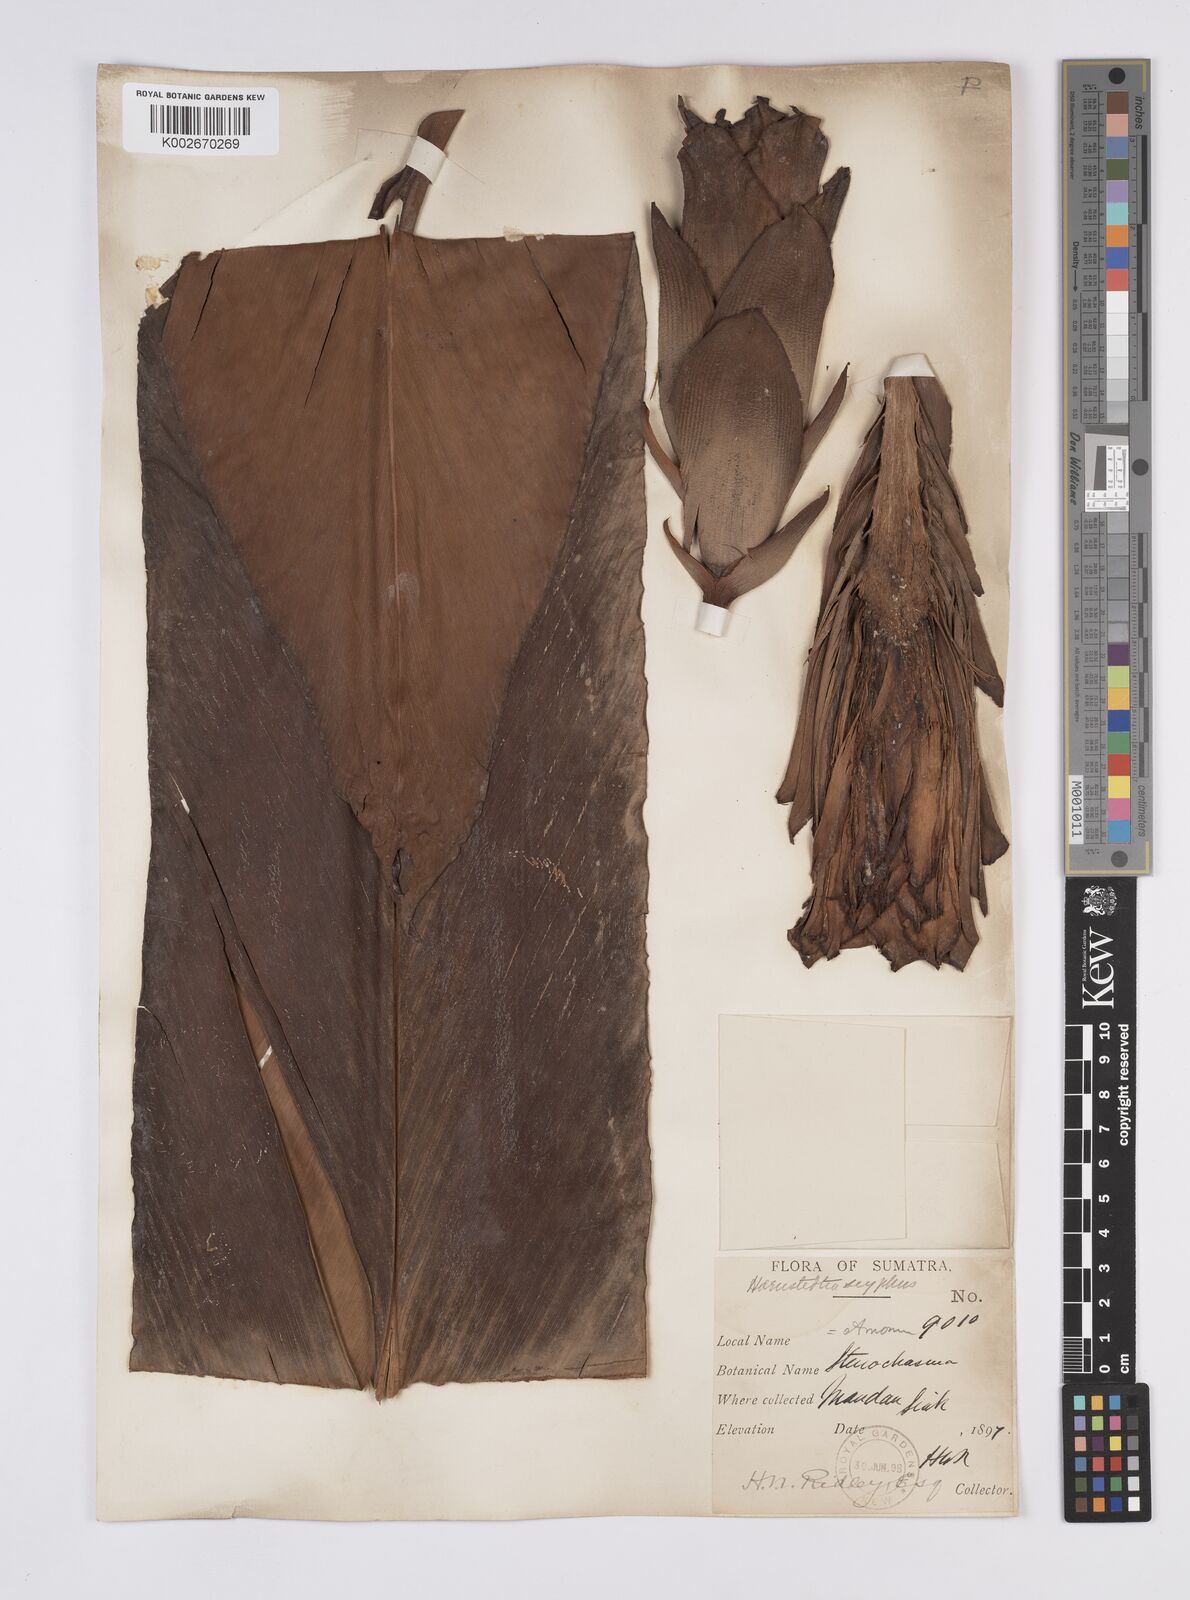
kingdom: Plantae
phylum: Tracheophyta
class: Liliopsida
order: Zingiberales
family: Zingiberaceae
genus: Hornstedtia
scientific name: Hornstedtia
